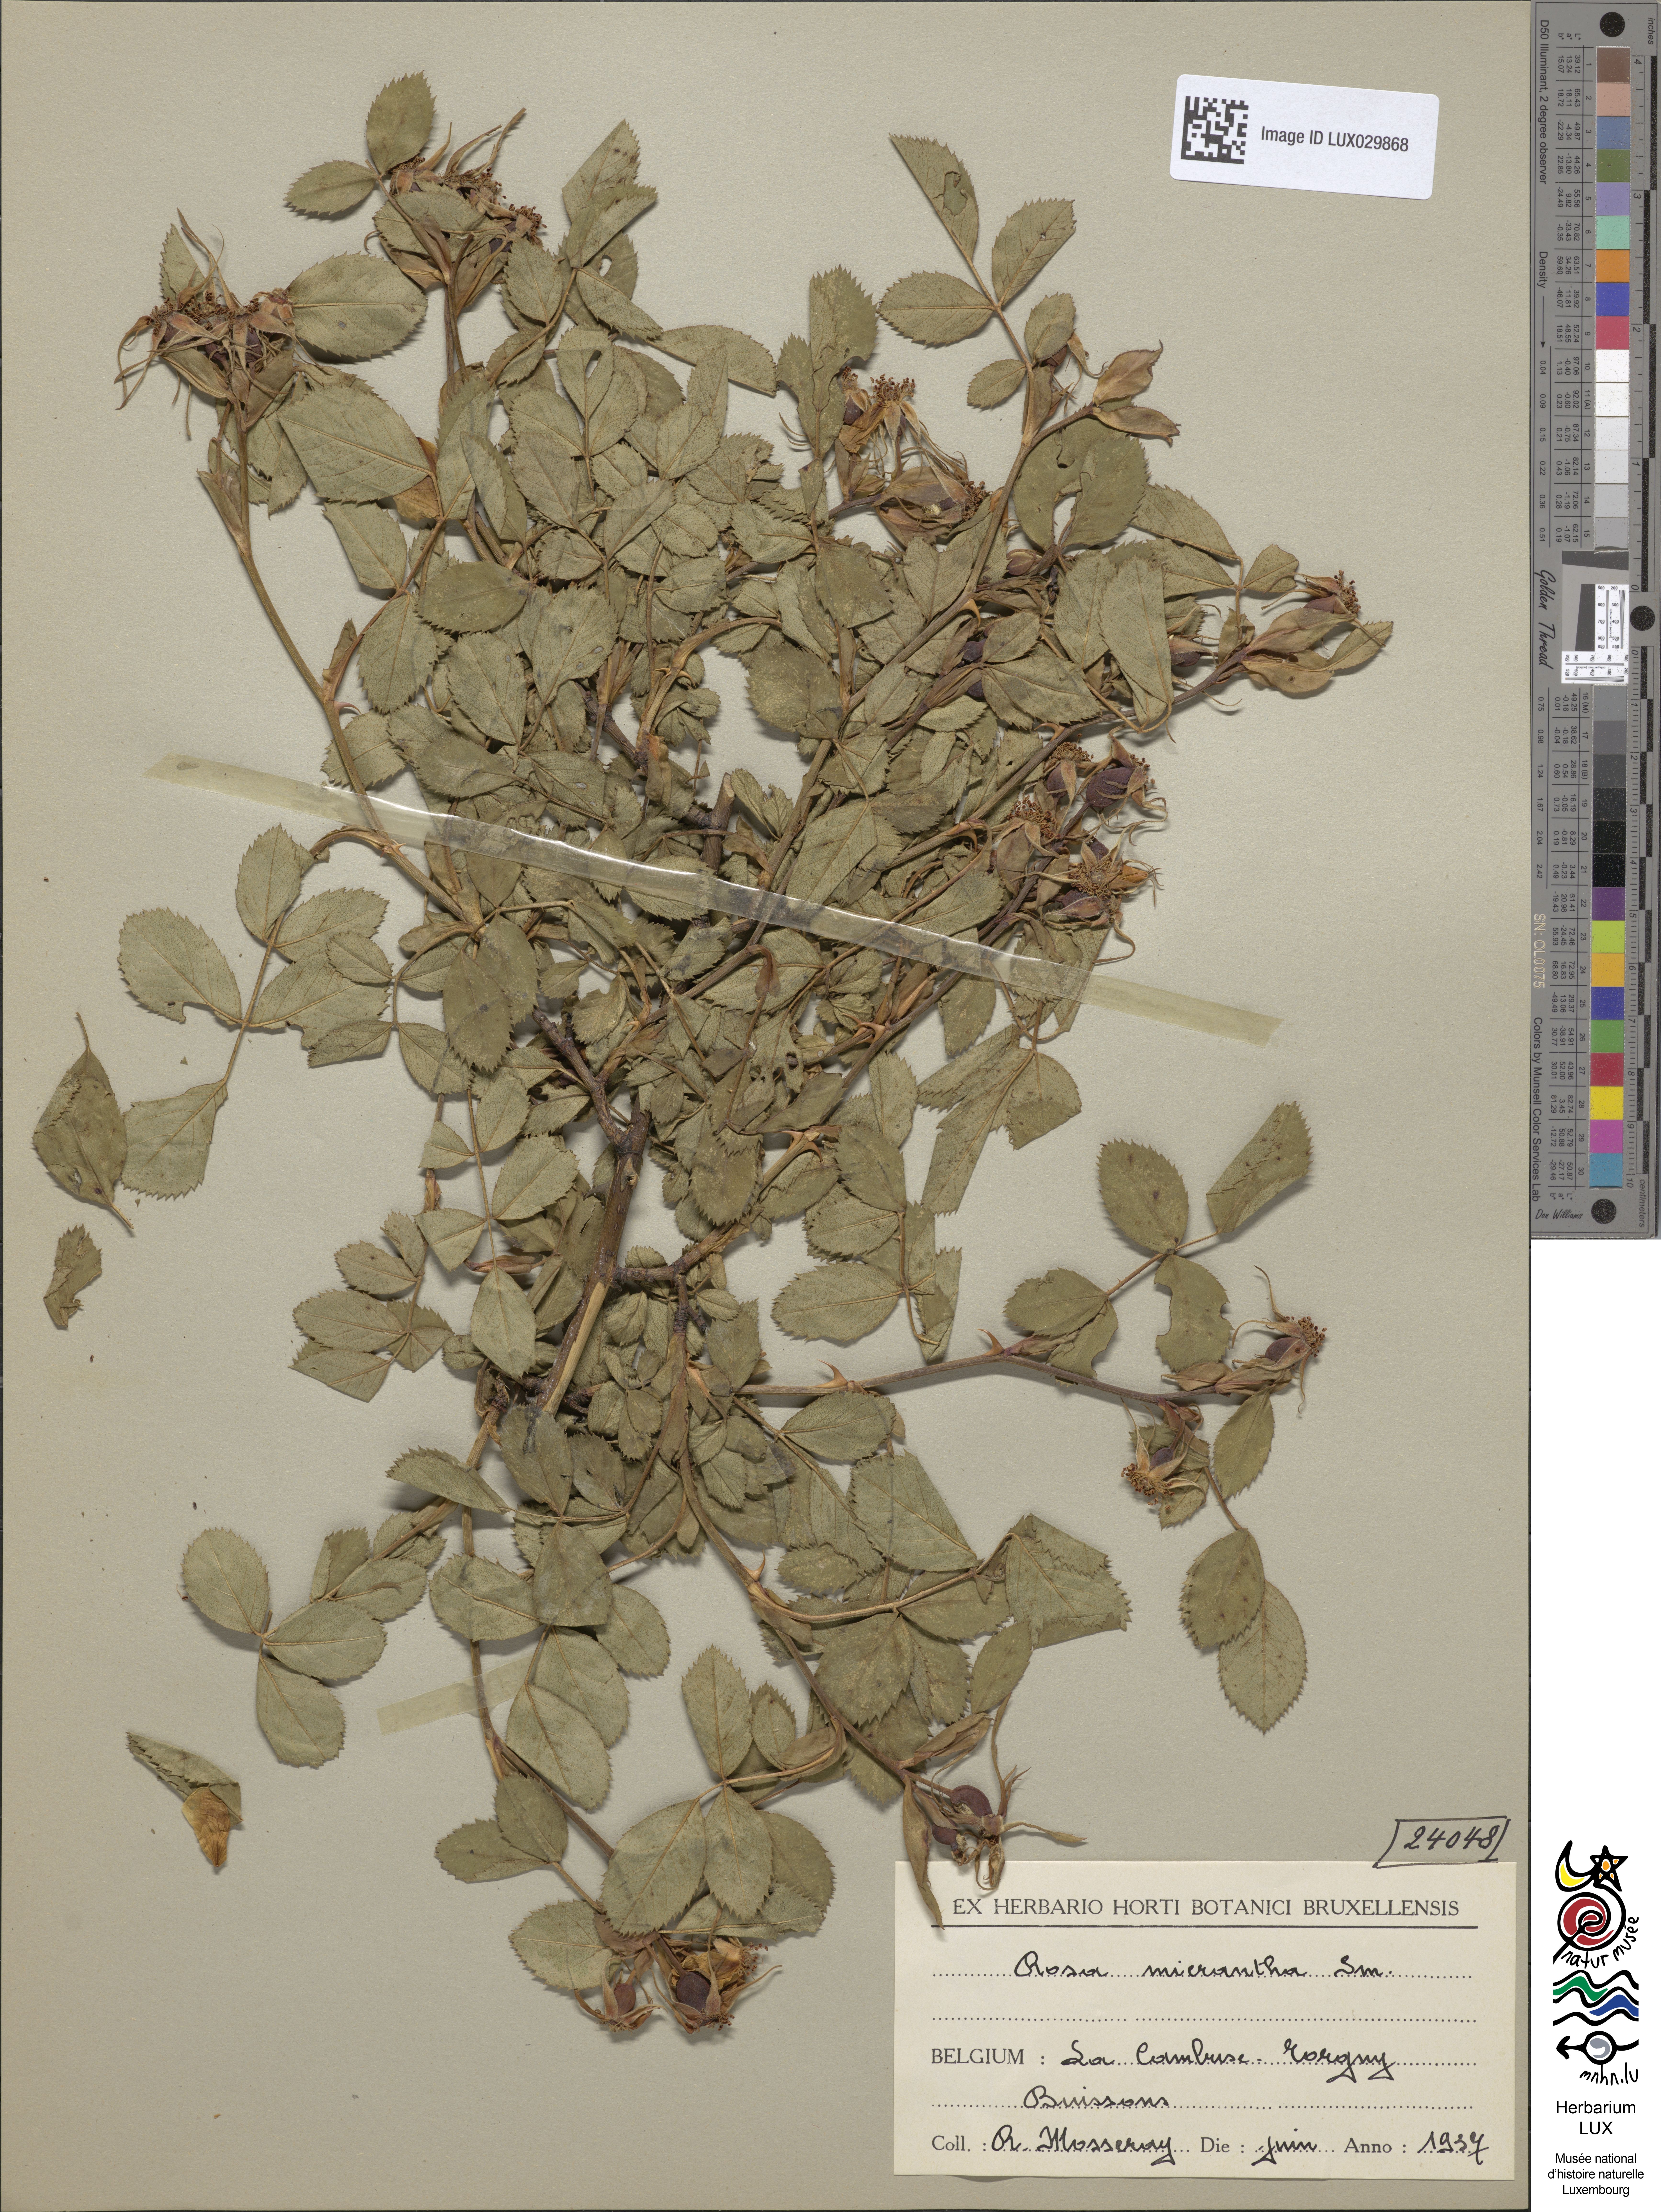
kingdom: Plantae
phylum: Tracheophyta
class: Magnoliopsida
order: Rosales
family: Rosaceae
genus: Rosa
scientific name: Rosa micrantha
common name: Small-flowered sweet-briar
